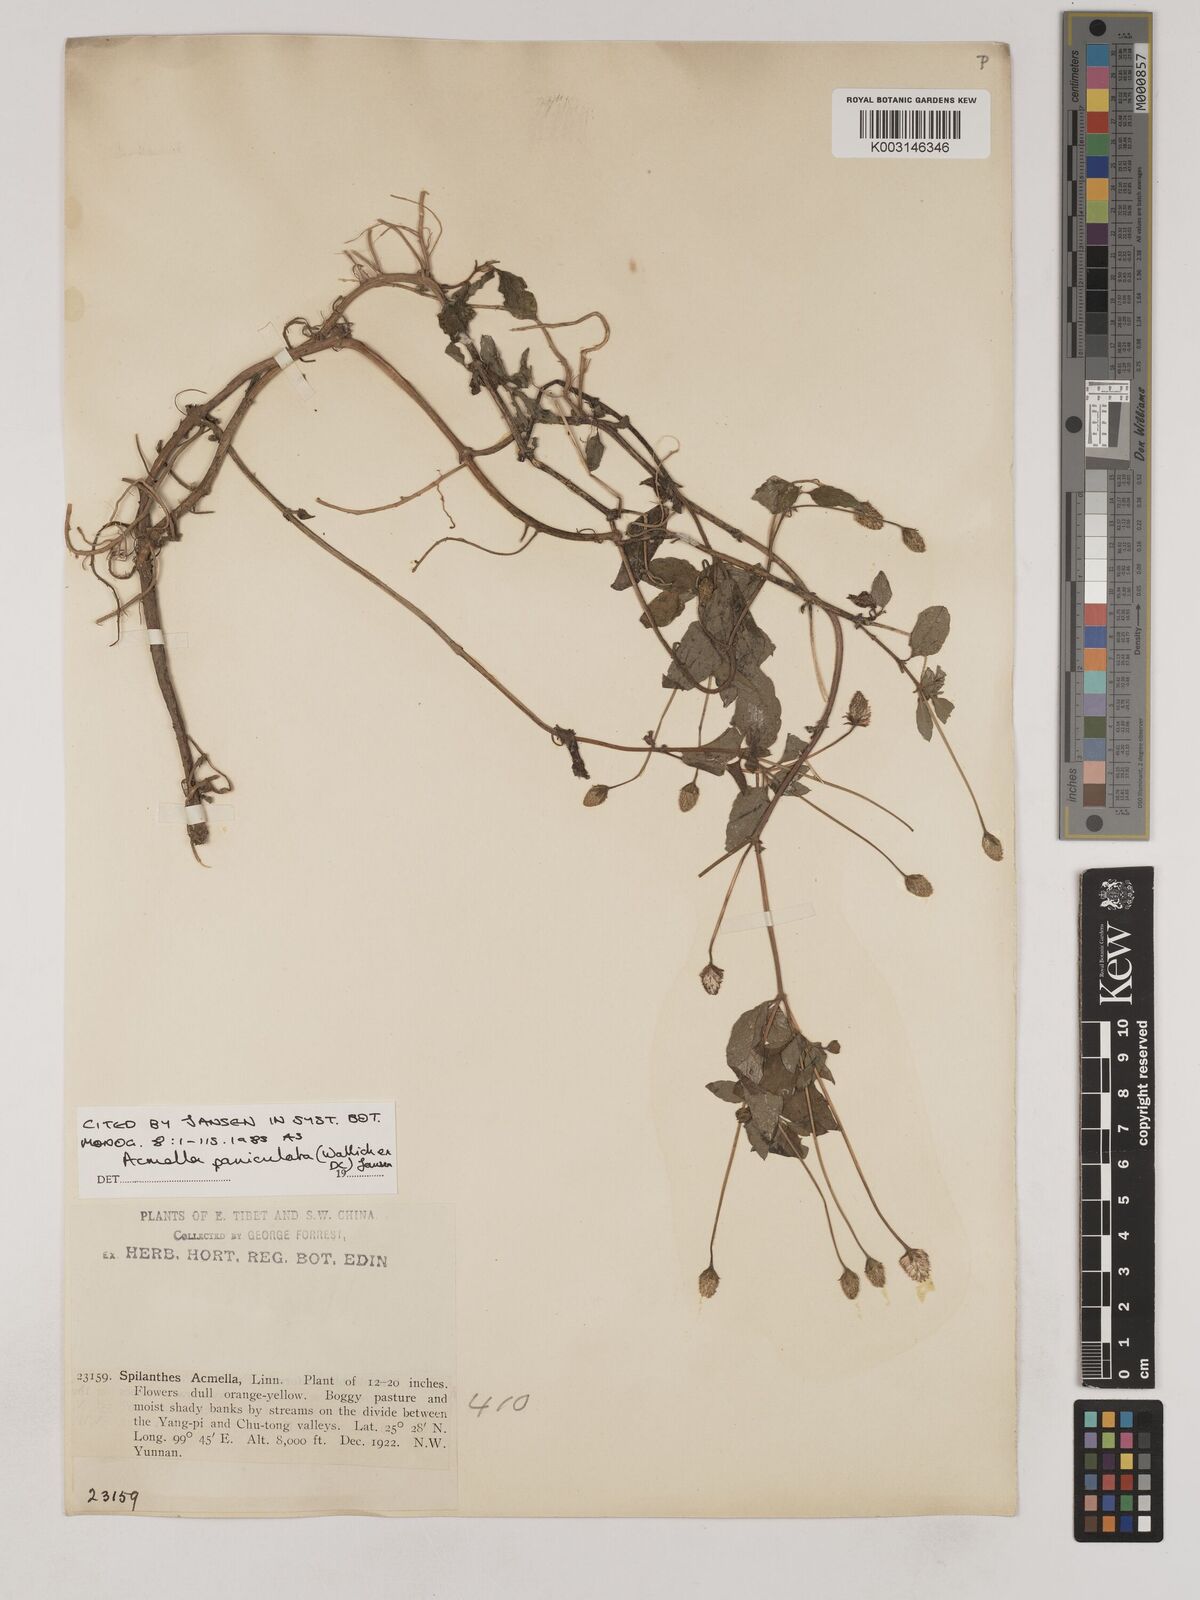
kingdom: Plantae
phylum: Tracheophyta
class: Magnoliopsida
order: Asterales
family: Asteraceae
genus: Acmella
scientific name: Acmella paniculata
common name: Panicled spot flower
